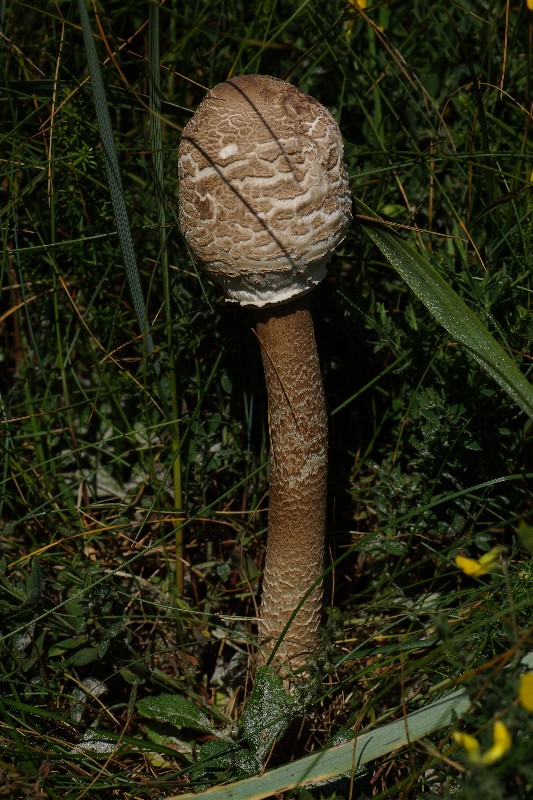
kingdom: Fungi
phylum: Basidiomycota
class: Agaricomycetes
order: Agaricales
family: Agaricaceae
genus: Macrolepiota
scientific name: Macrolepiota procera
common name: stor kæmpeparasolhat
